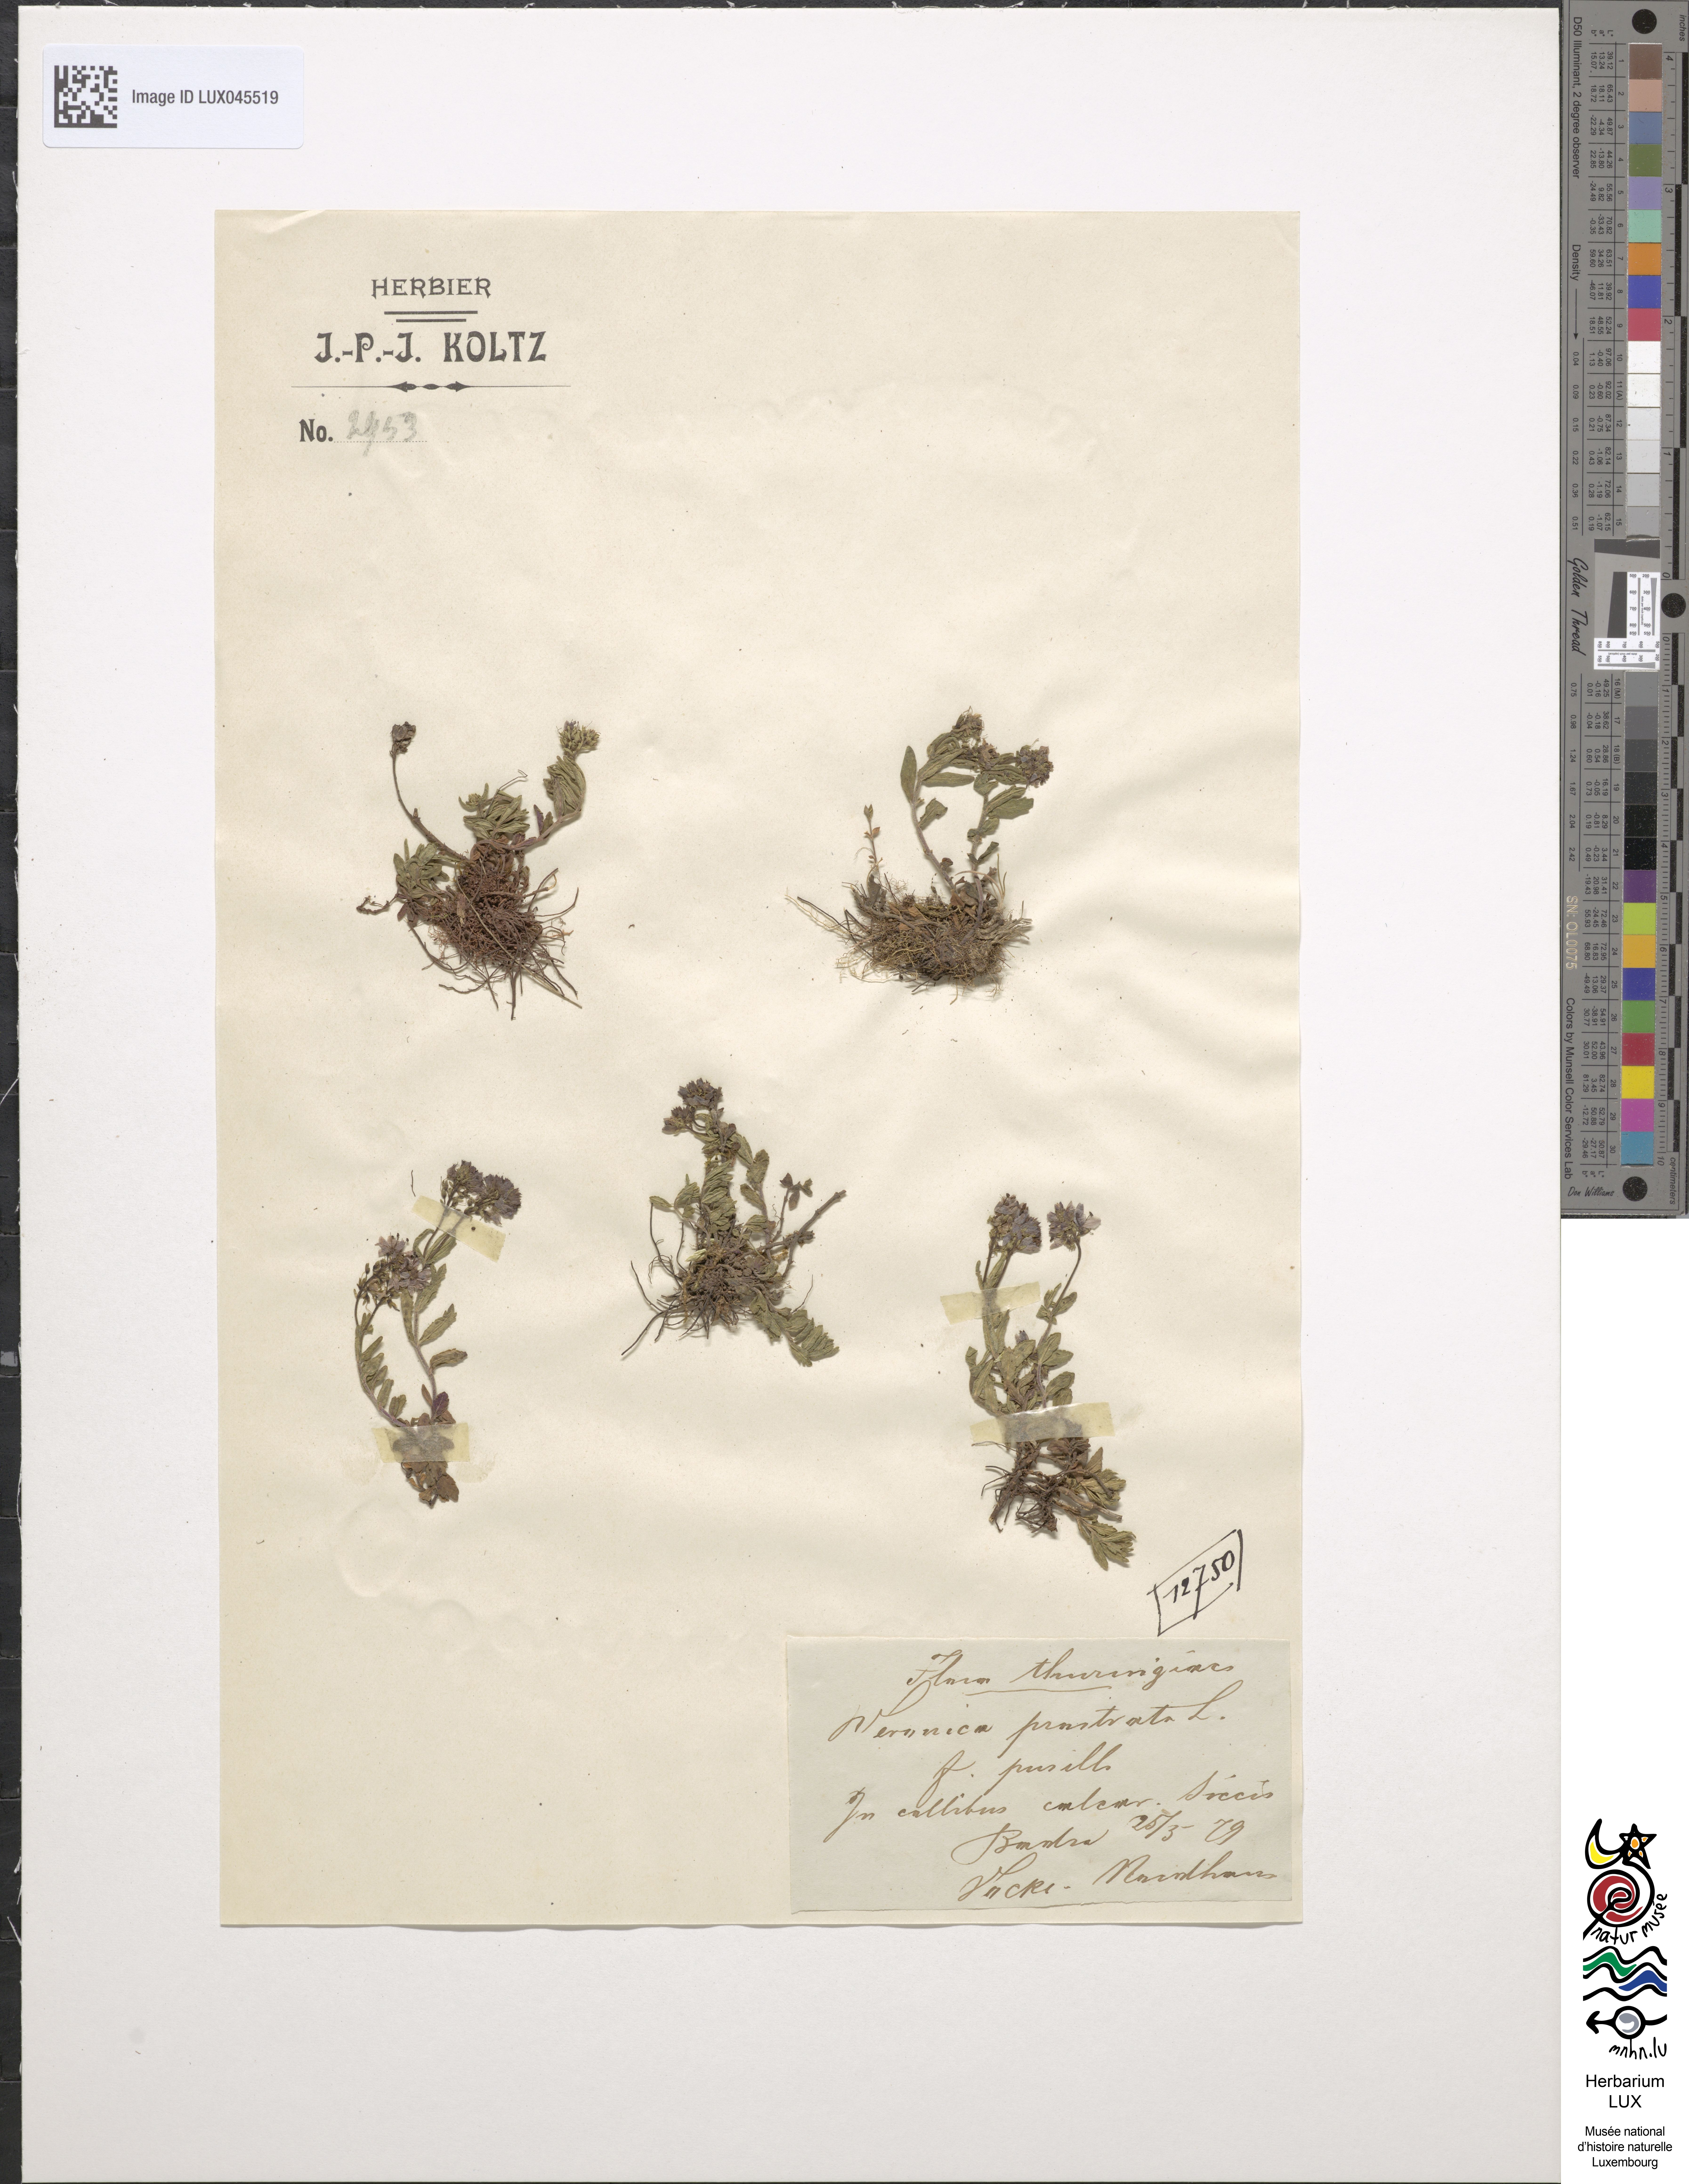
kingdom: Plantae
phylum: Tracheophyta
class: Magnoliopsida
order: Lamiales
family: Plantaginaceae
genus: Veronica
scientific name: Veronica prostrata
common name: Prostrate speedwell
